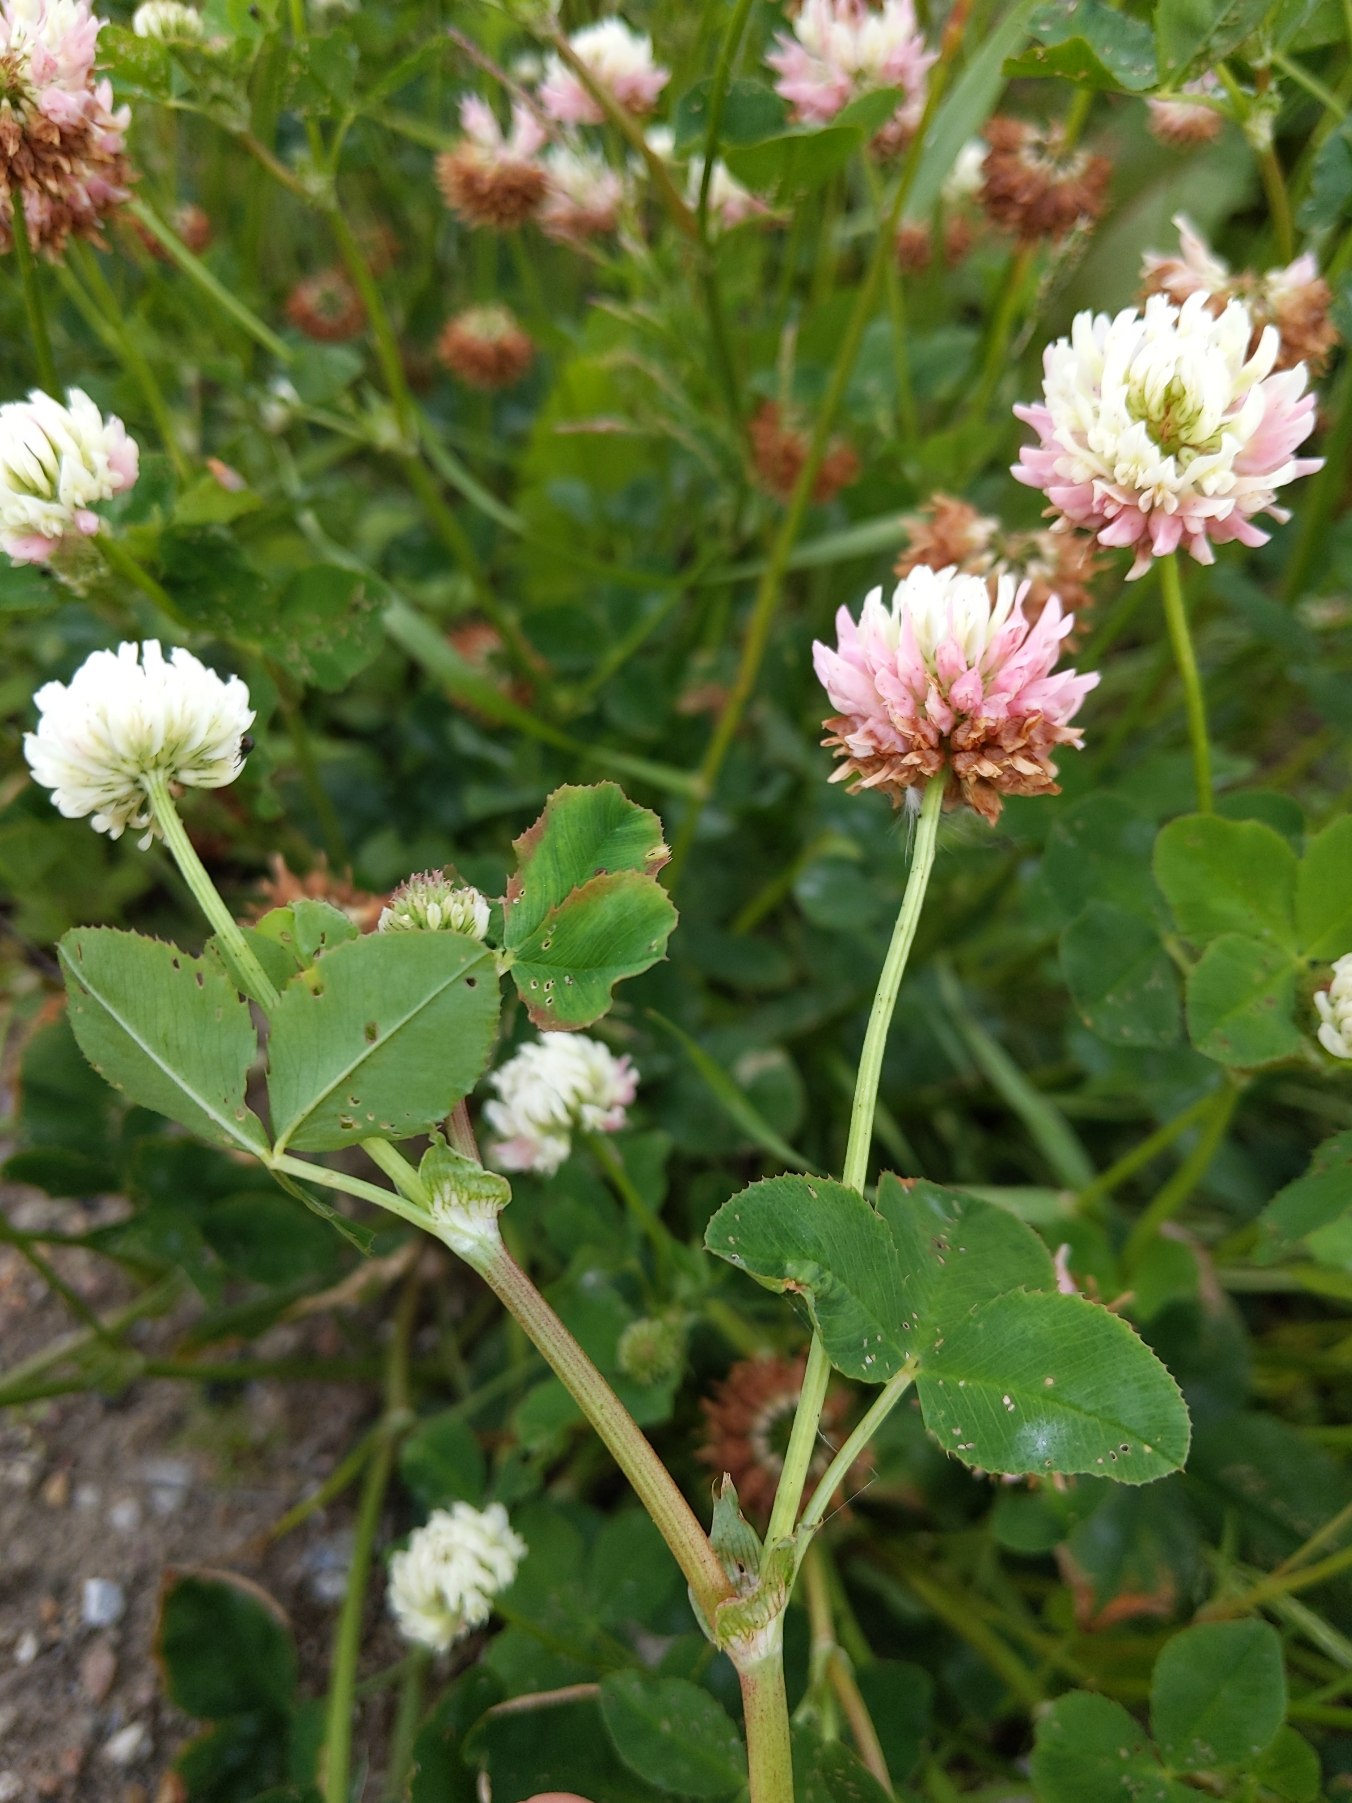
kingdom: Plantae
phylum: Tracheophyta
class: Magnoliopsida
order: Fabales
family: Fabaceae
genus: Trifolium
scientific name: Trifolium hybridum
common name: Alsike-kløver
